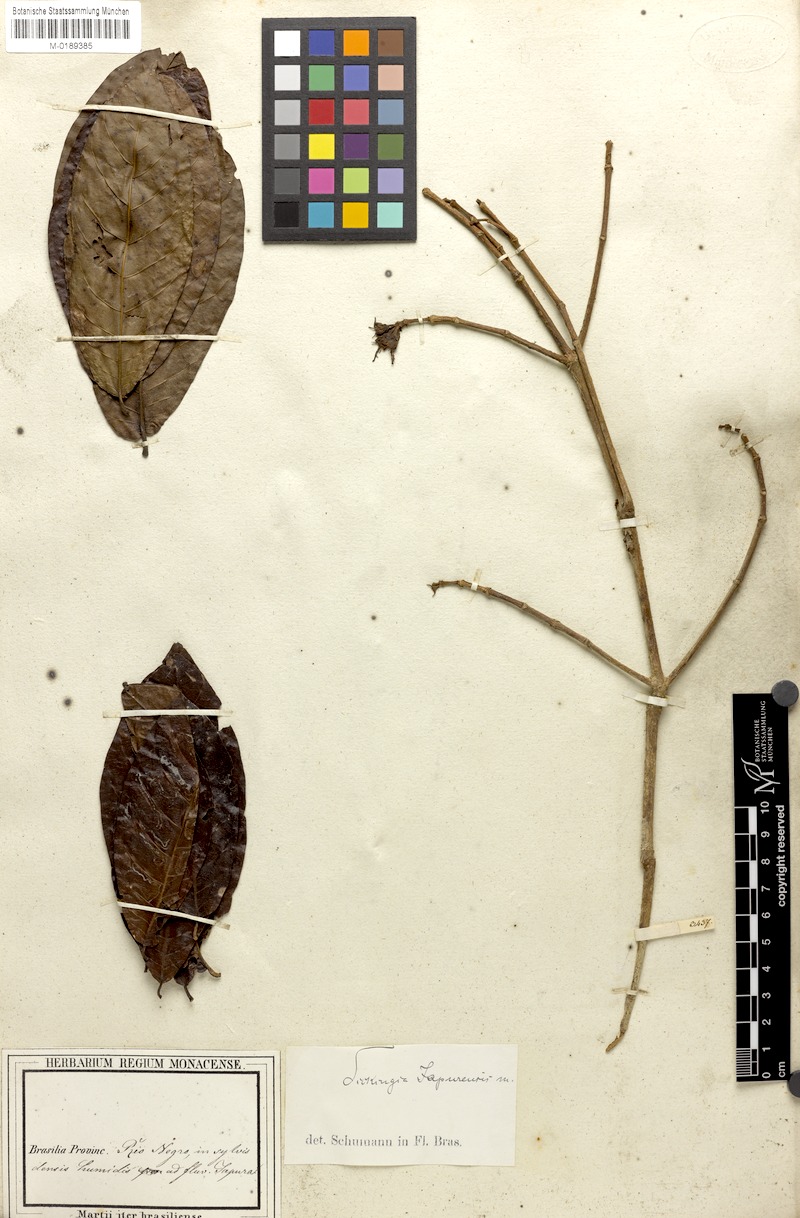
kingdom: Plantae
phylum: Tracheophyta
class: Magnoliopsida
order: Gentianales
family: Rubiaceae
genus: Simira
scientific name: Simira rubescens
